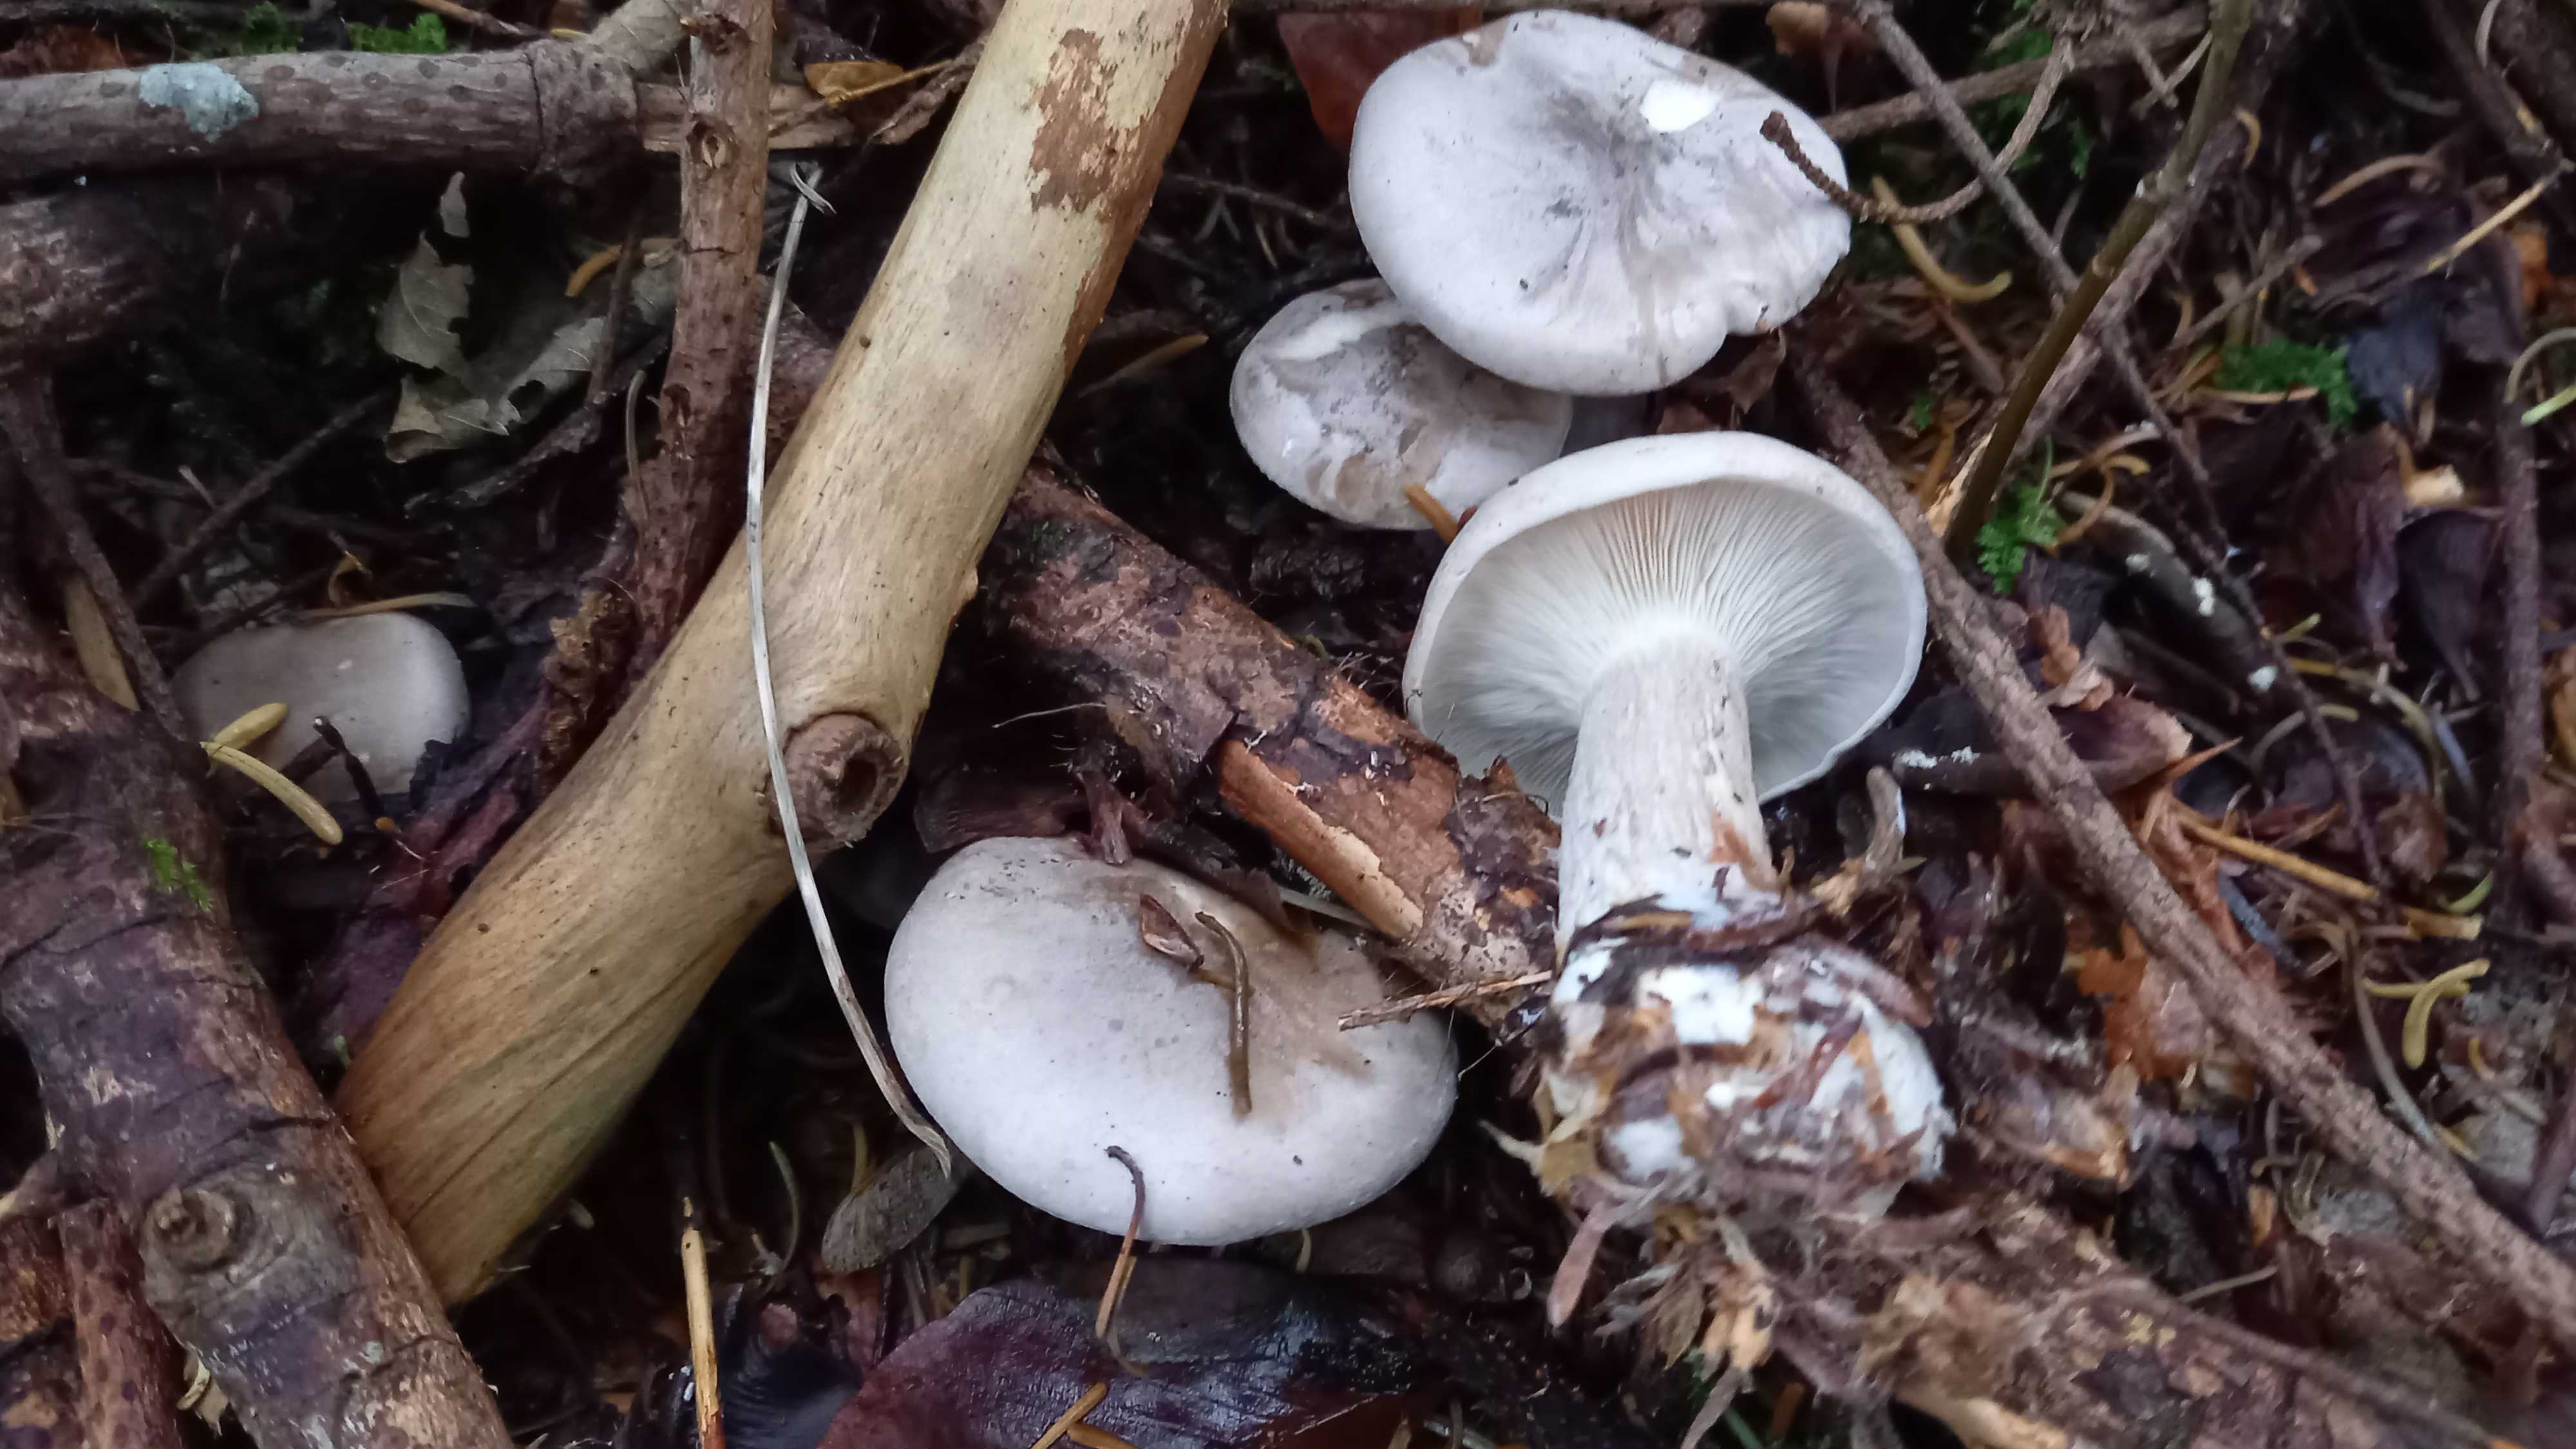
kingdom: Fungi
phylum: Basidiomycota
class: Agaricomycetes
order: Agaricales
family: Tricholomataceae
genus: Clitocybe
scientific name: Clitocybe nebularis
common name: tåge-tragthat
